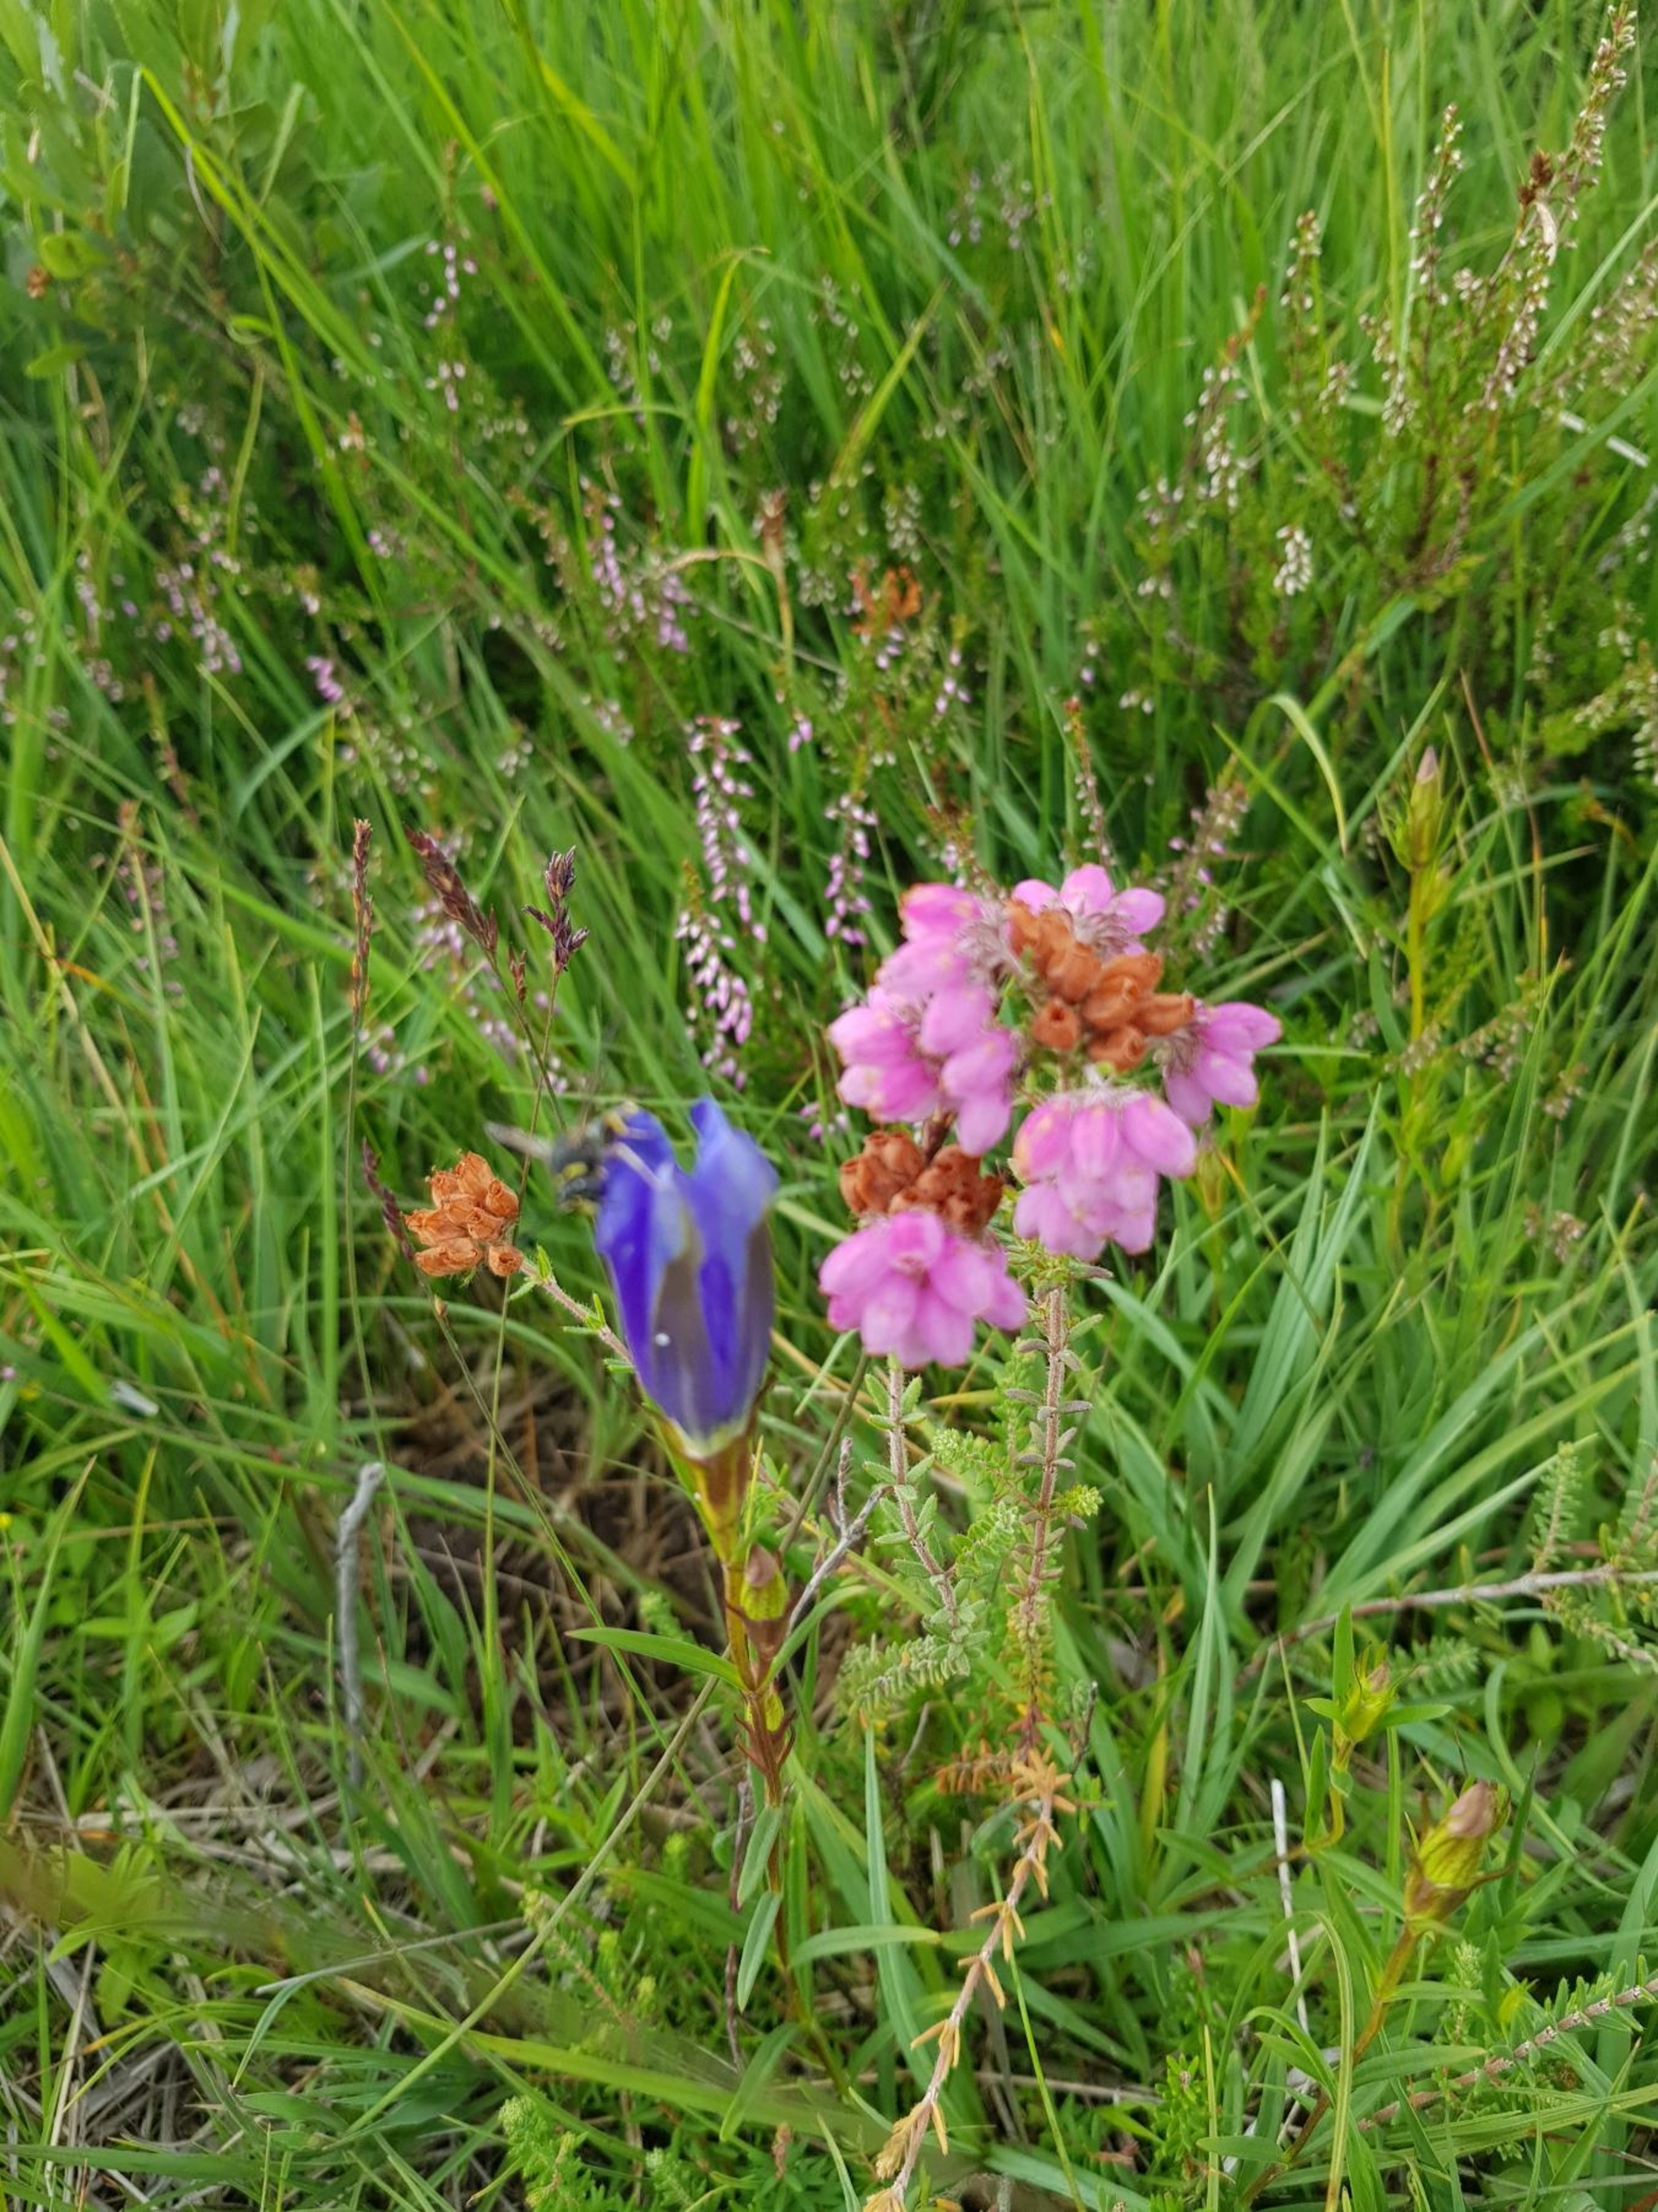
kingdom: Plantae
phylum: Tracheophyta
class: Magnoliopsida
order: Gentianales
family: Gentianaceae
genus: Gentiana
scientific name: Gentiana pneumonanthe
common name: Klokke-ensian
